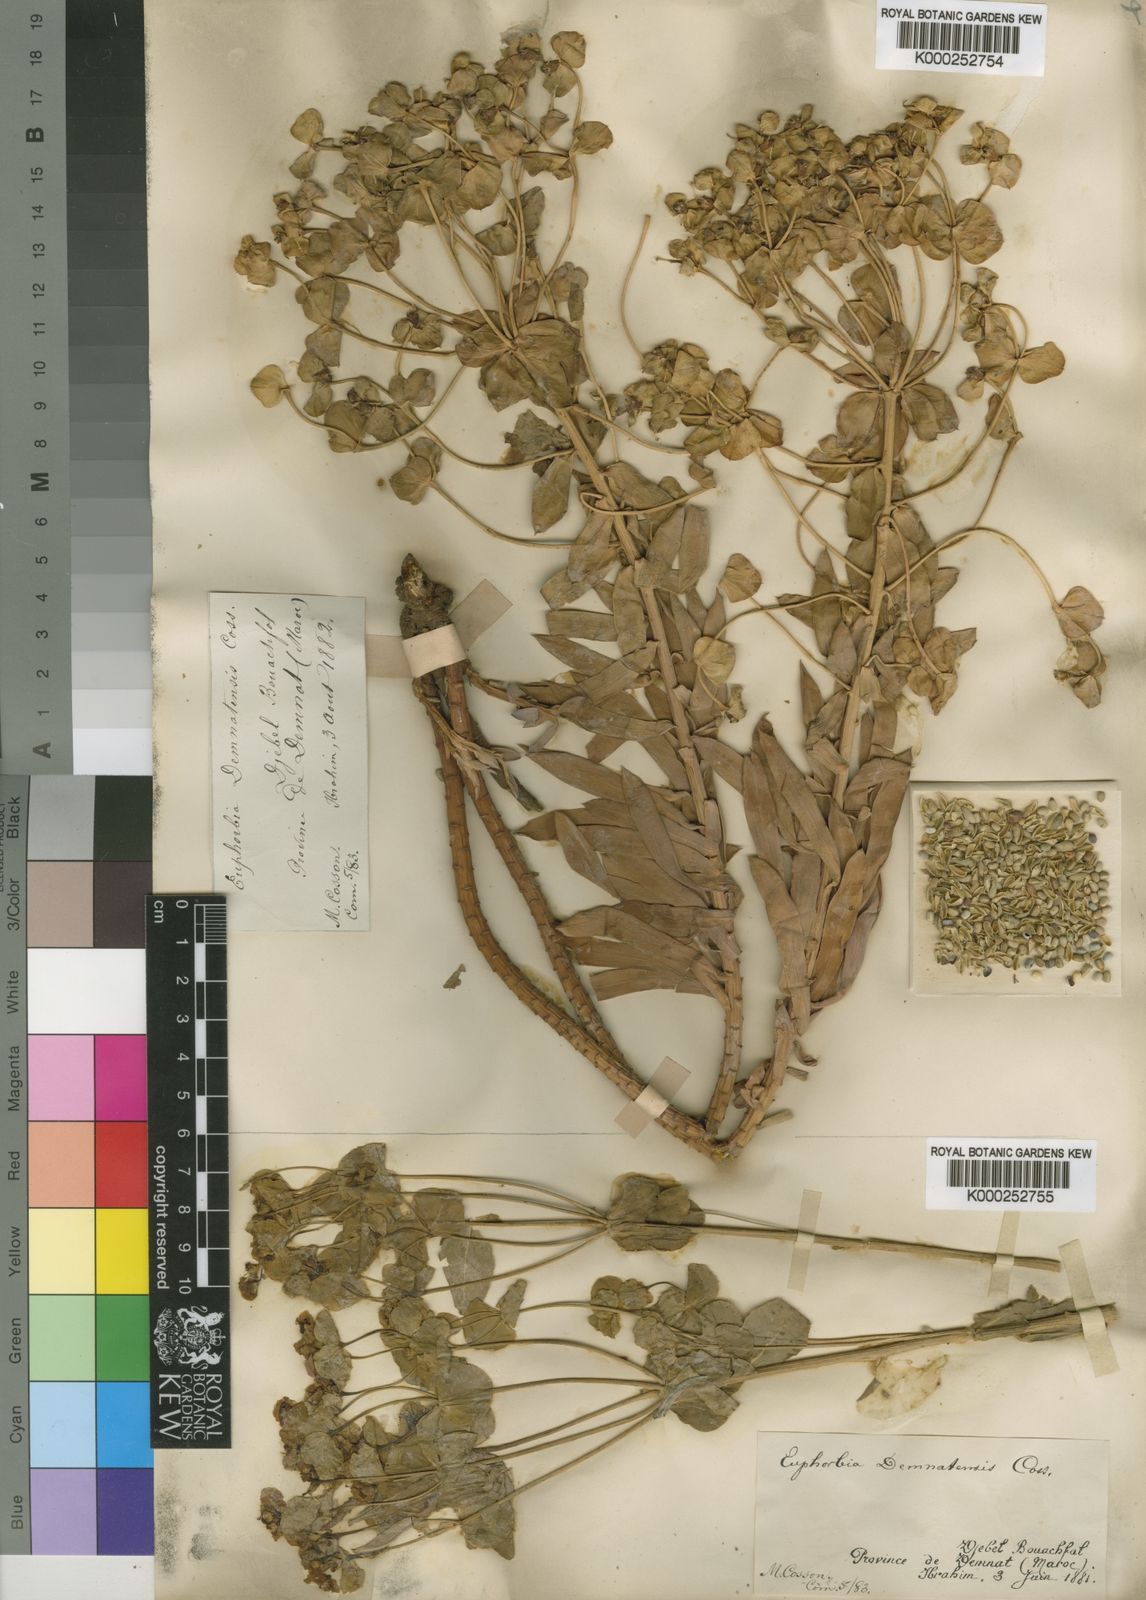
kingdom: Plantae
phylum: Tracheophyta
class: Magnoliopsida
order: Malpighiales
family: Euphorbiaceae
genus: Euphorbia
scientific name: Euphorbia nicaeensis
